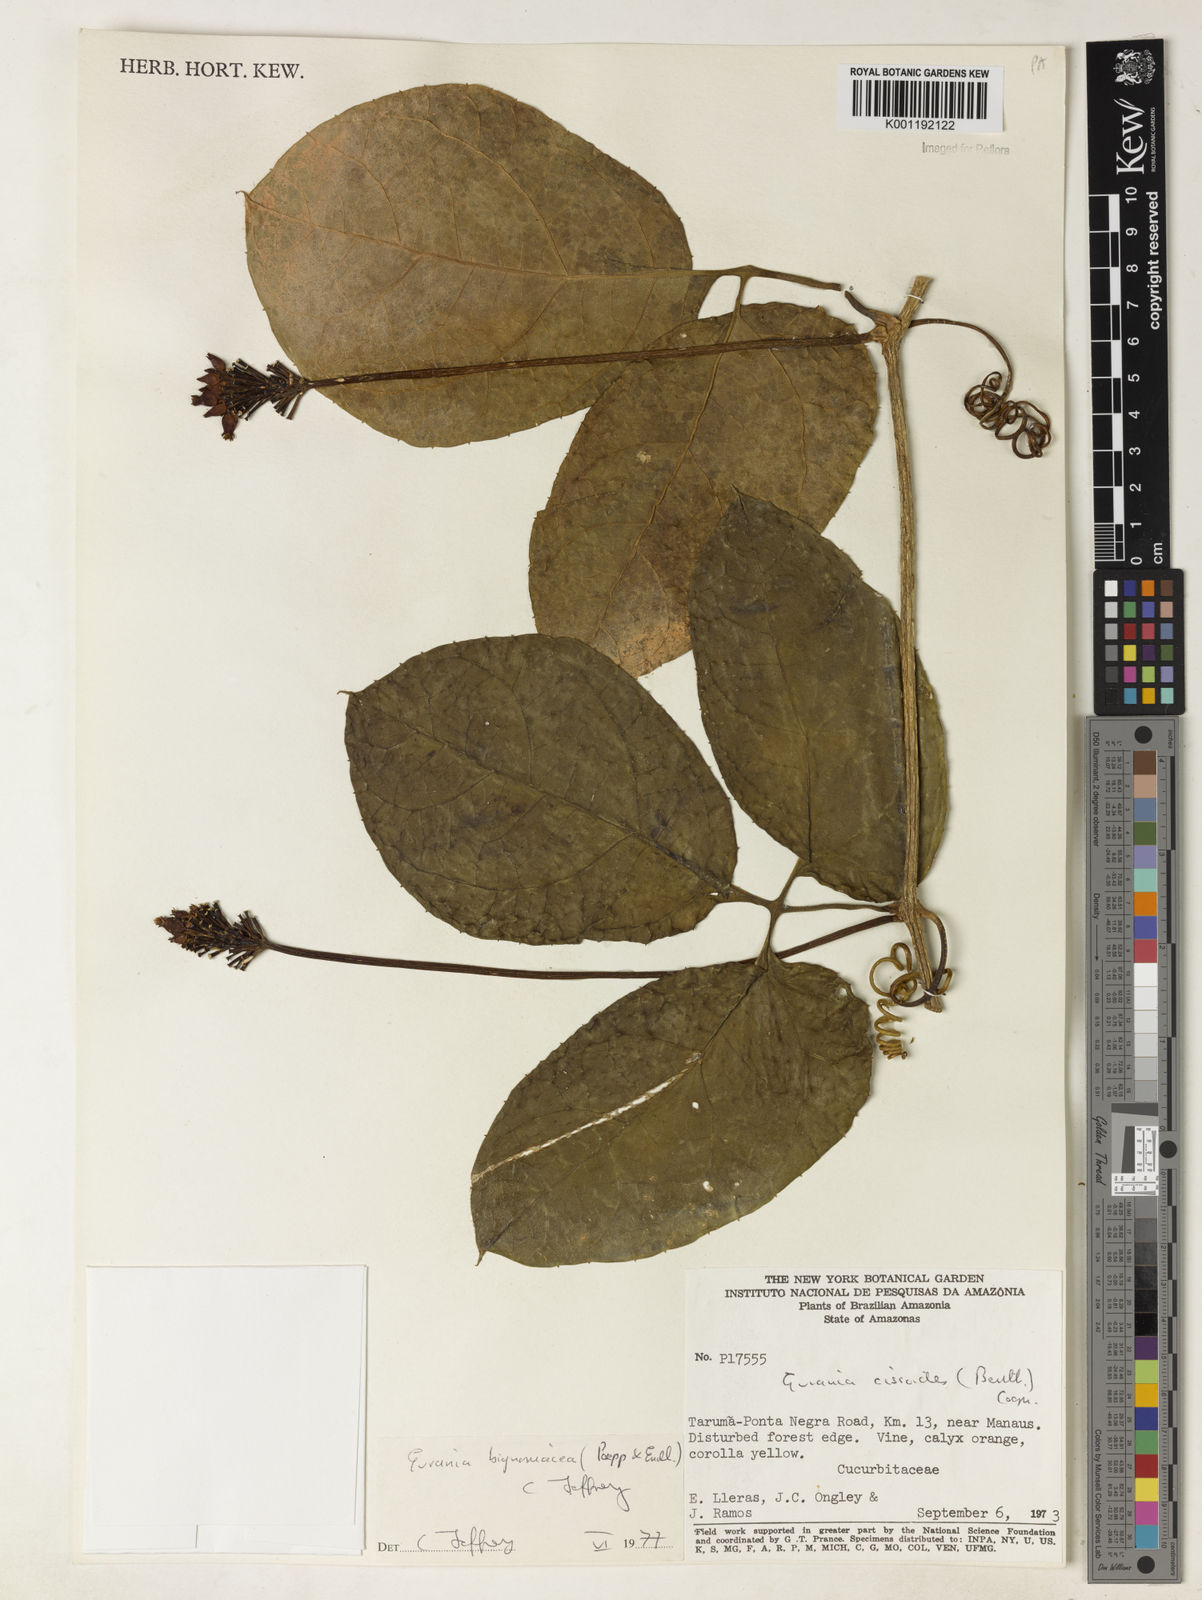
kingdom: Plantae
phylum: Tracheophyta
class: Magnoliopsida
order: Cucurbitales
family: Cucurbitaceae
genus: Gurania
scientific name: Gurania bignoniacea
